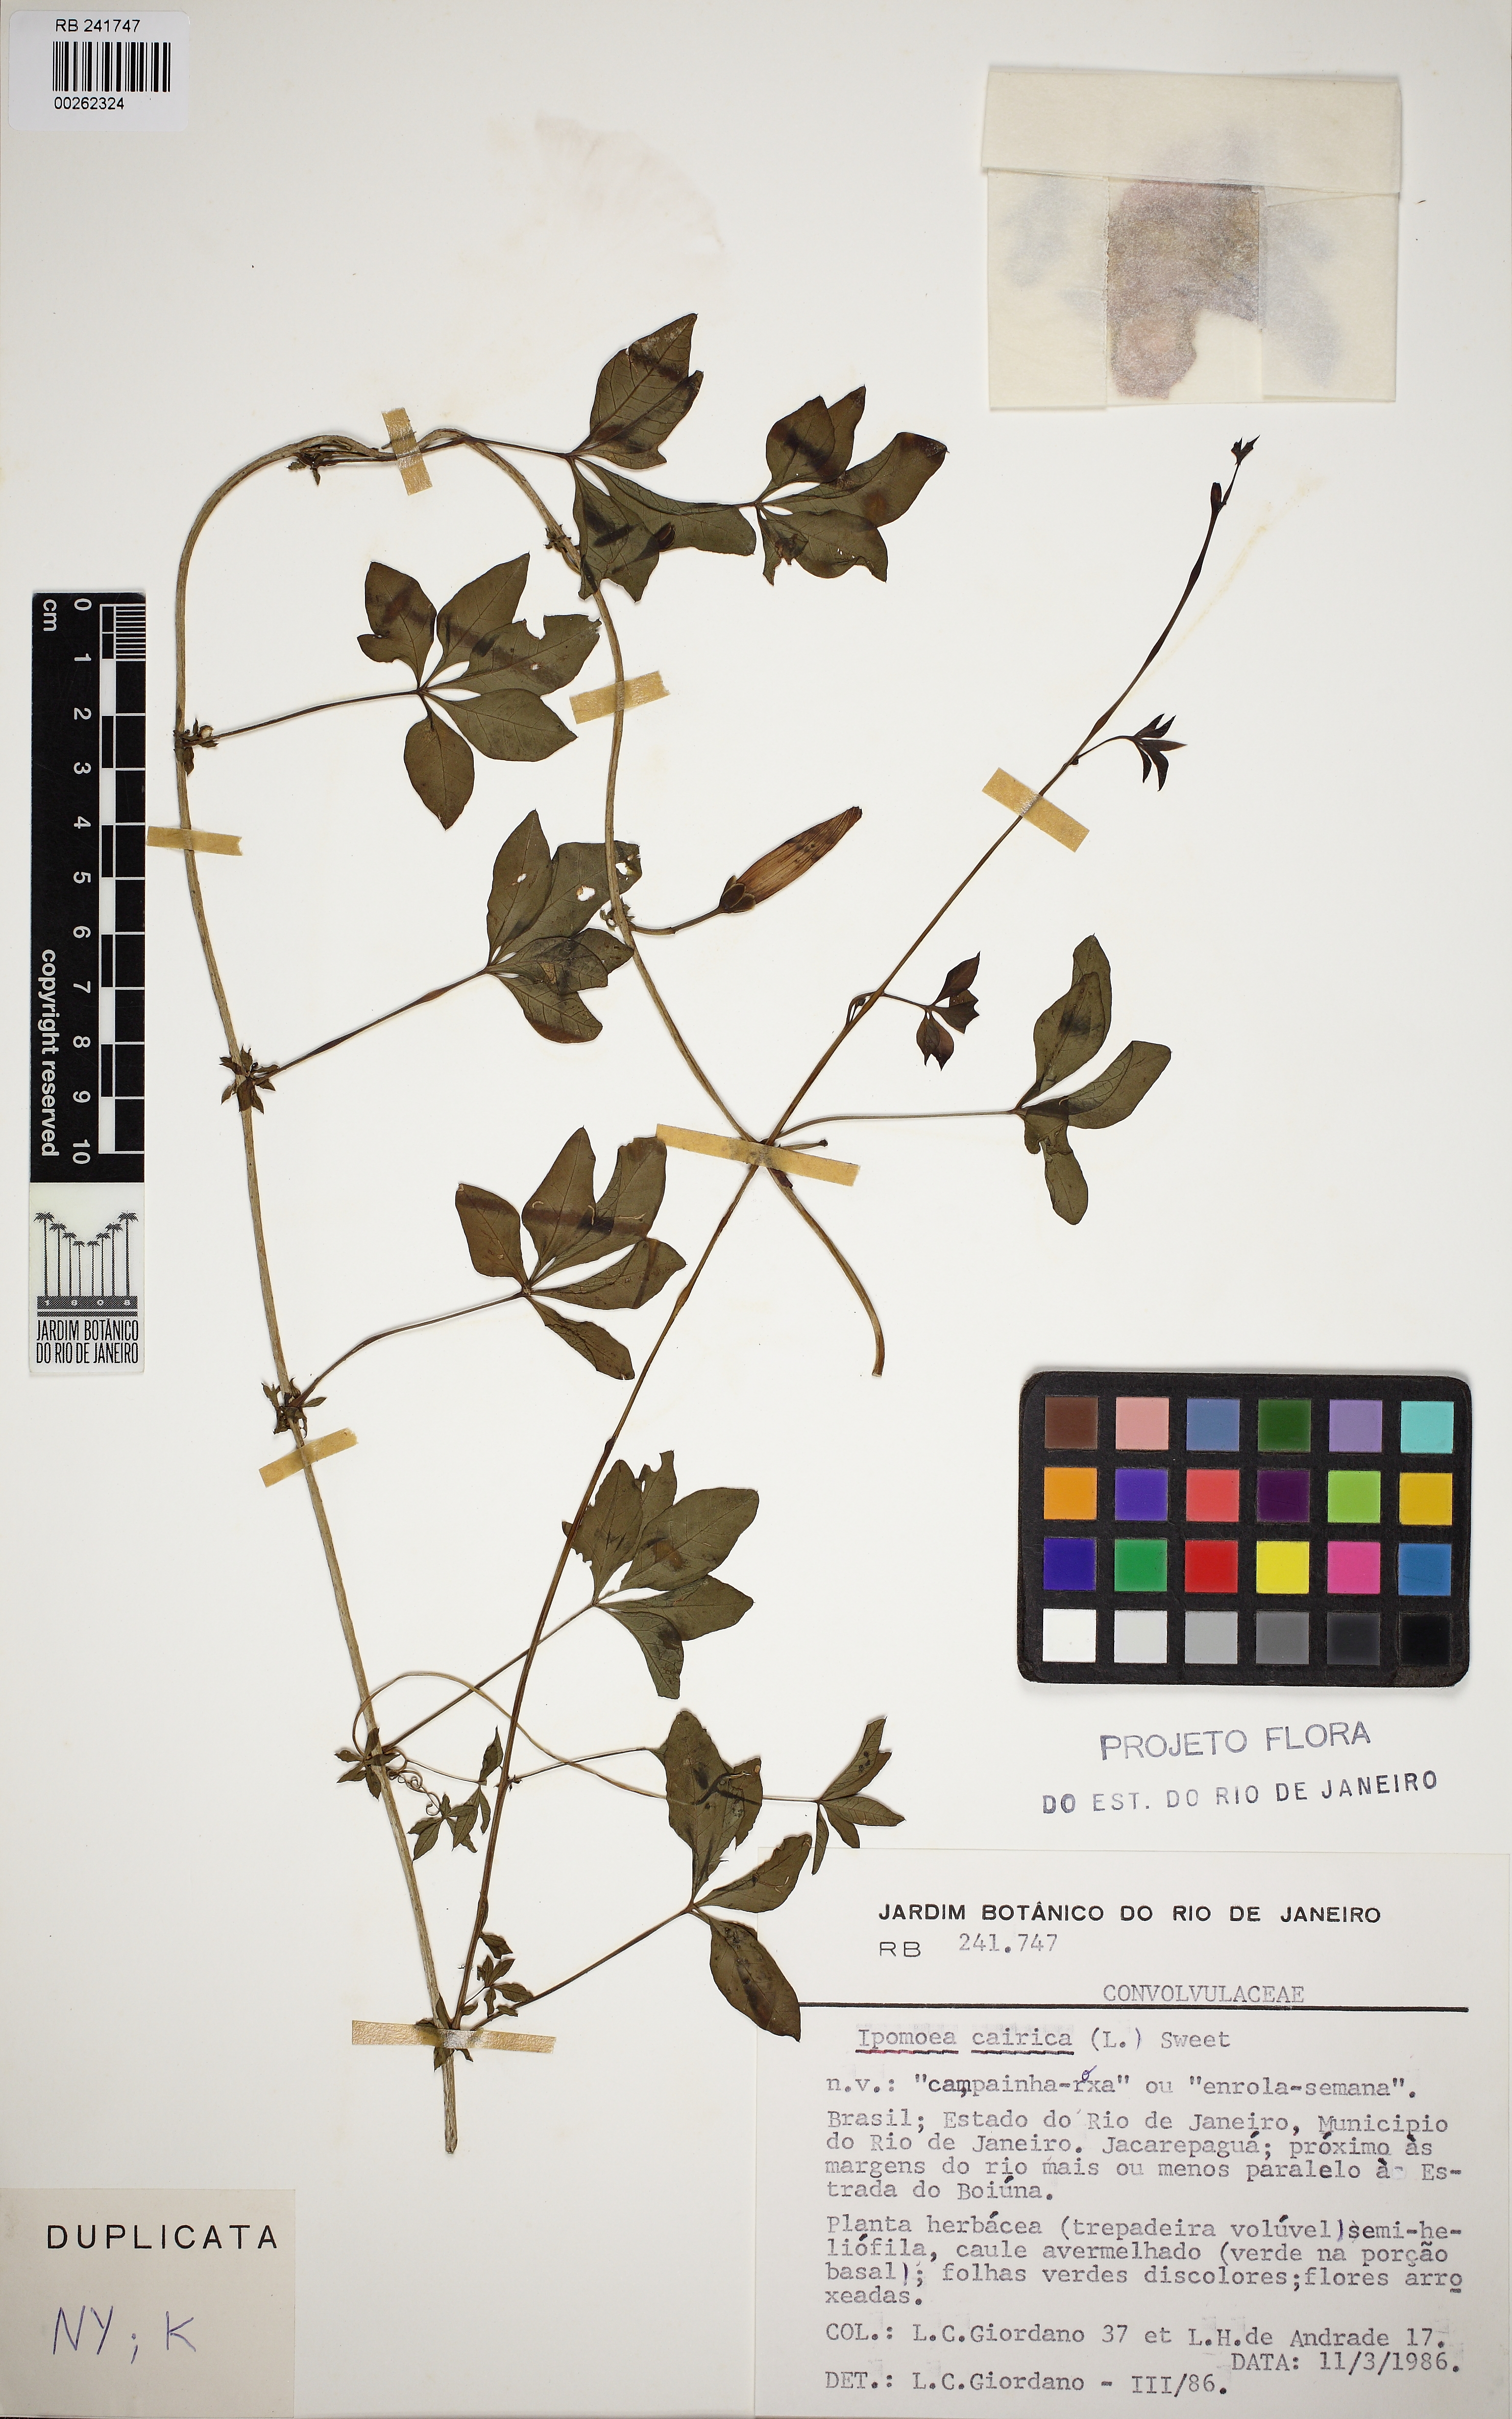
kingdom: Plantae
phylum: Tracheophyta
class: Magnoliopsida
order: Solanales
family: Convolvulaceae
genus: Ipomoea
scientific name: Ipomoea cairica
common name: Mile a minute vine
